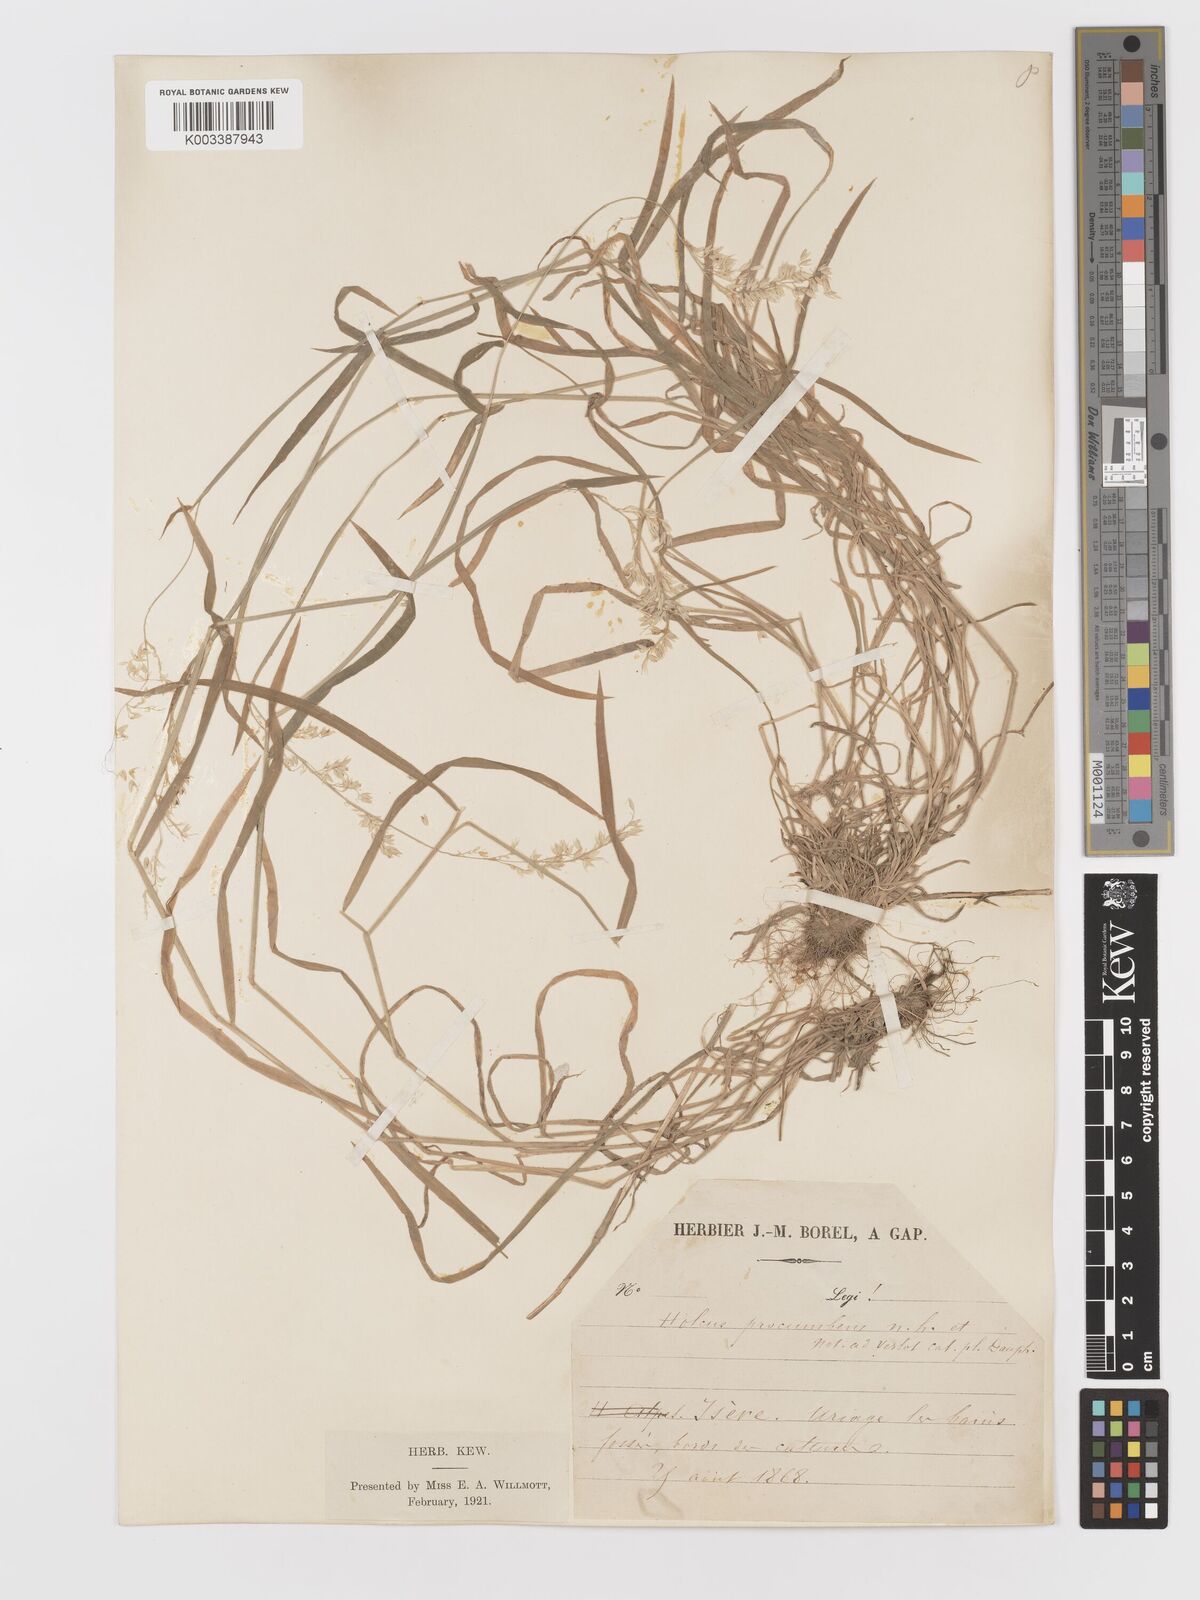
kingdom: Plantae
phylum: Tracheophyta
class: Liliopsida
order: Poales
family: Poaceae
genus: Holcus
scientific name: Holcus lanatus
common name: Yorkshire-fog
